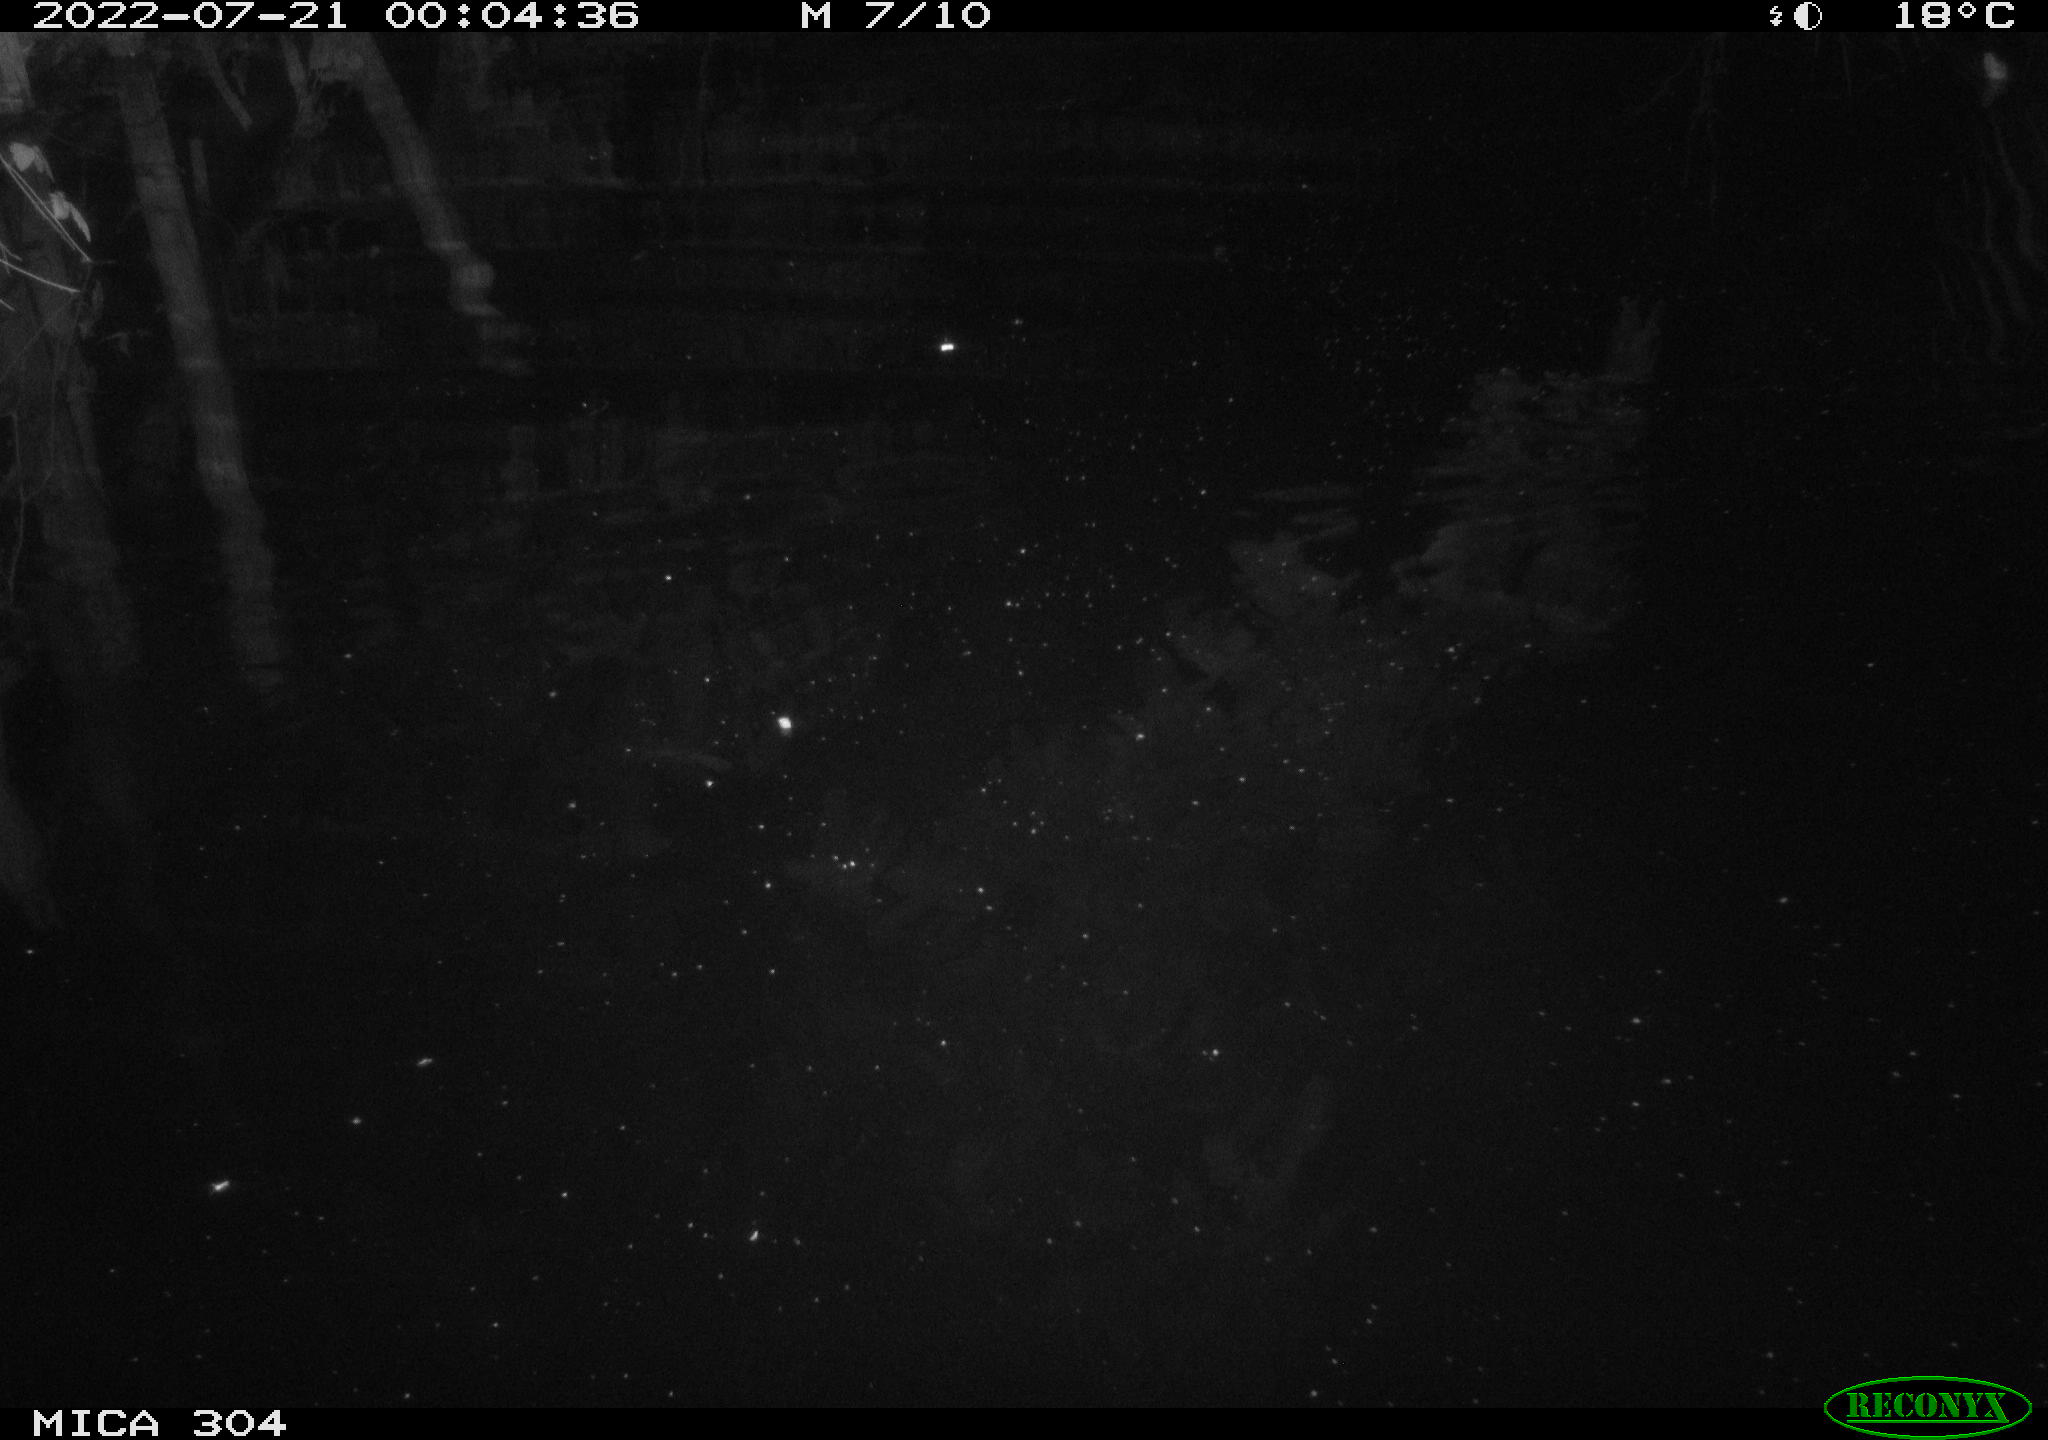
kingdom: Animalia
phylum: Chordata
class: Mammalia
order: Rodentia
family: Muridae
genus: Rattus
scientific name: Rattus norvegicus
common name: Brown rat
